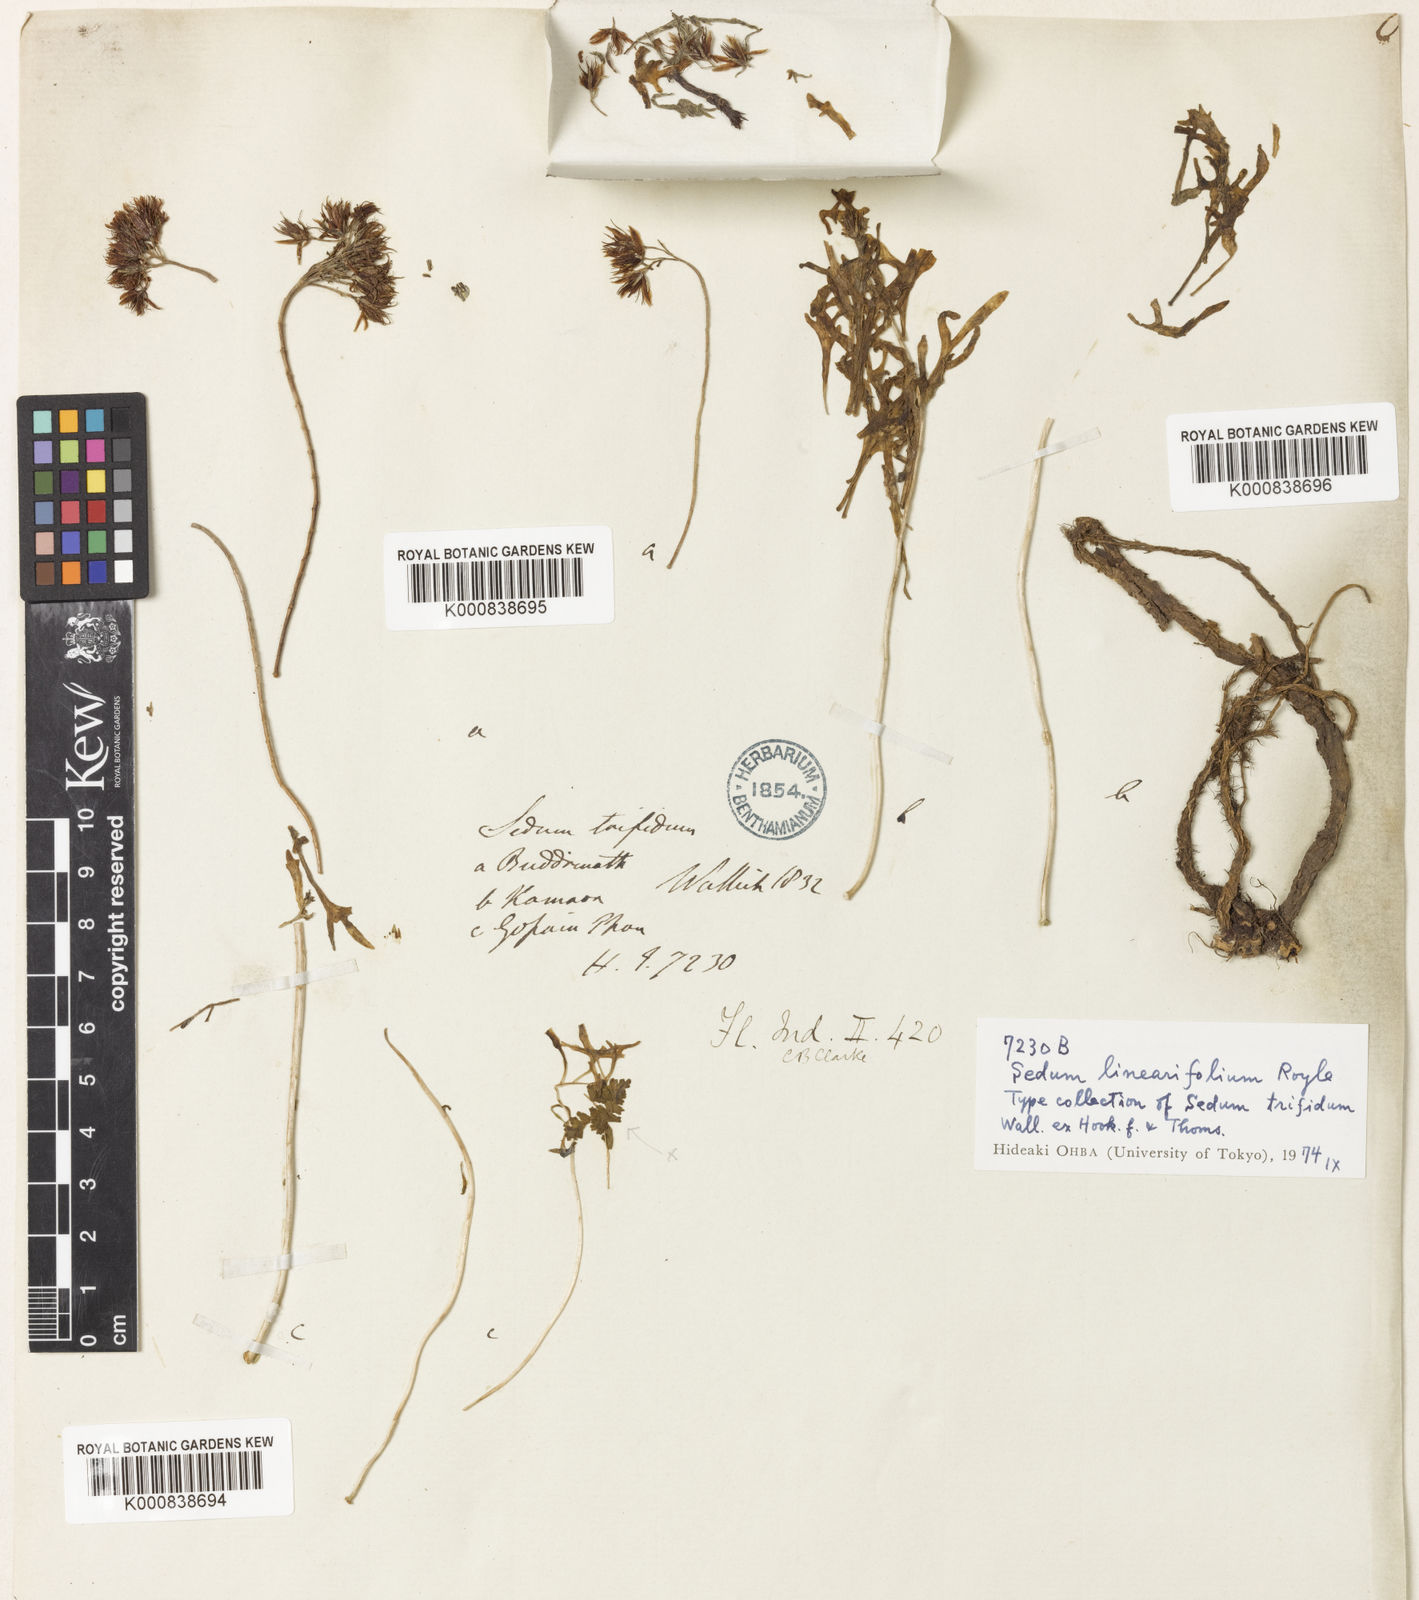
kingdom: Plantae
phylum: Tracheophyta
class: Magnoliopsida
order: Saxifragales
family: Crassulaceae
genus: Rhodiola
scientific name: Rhodiola sinuata
